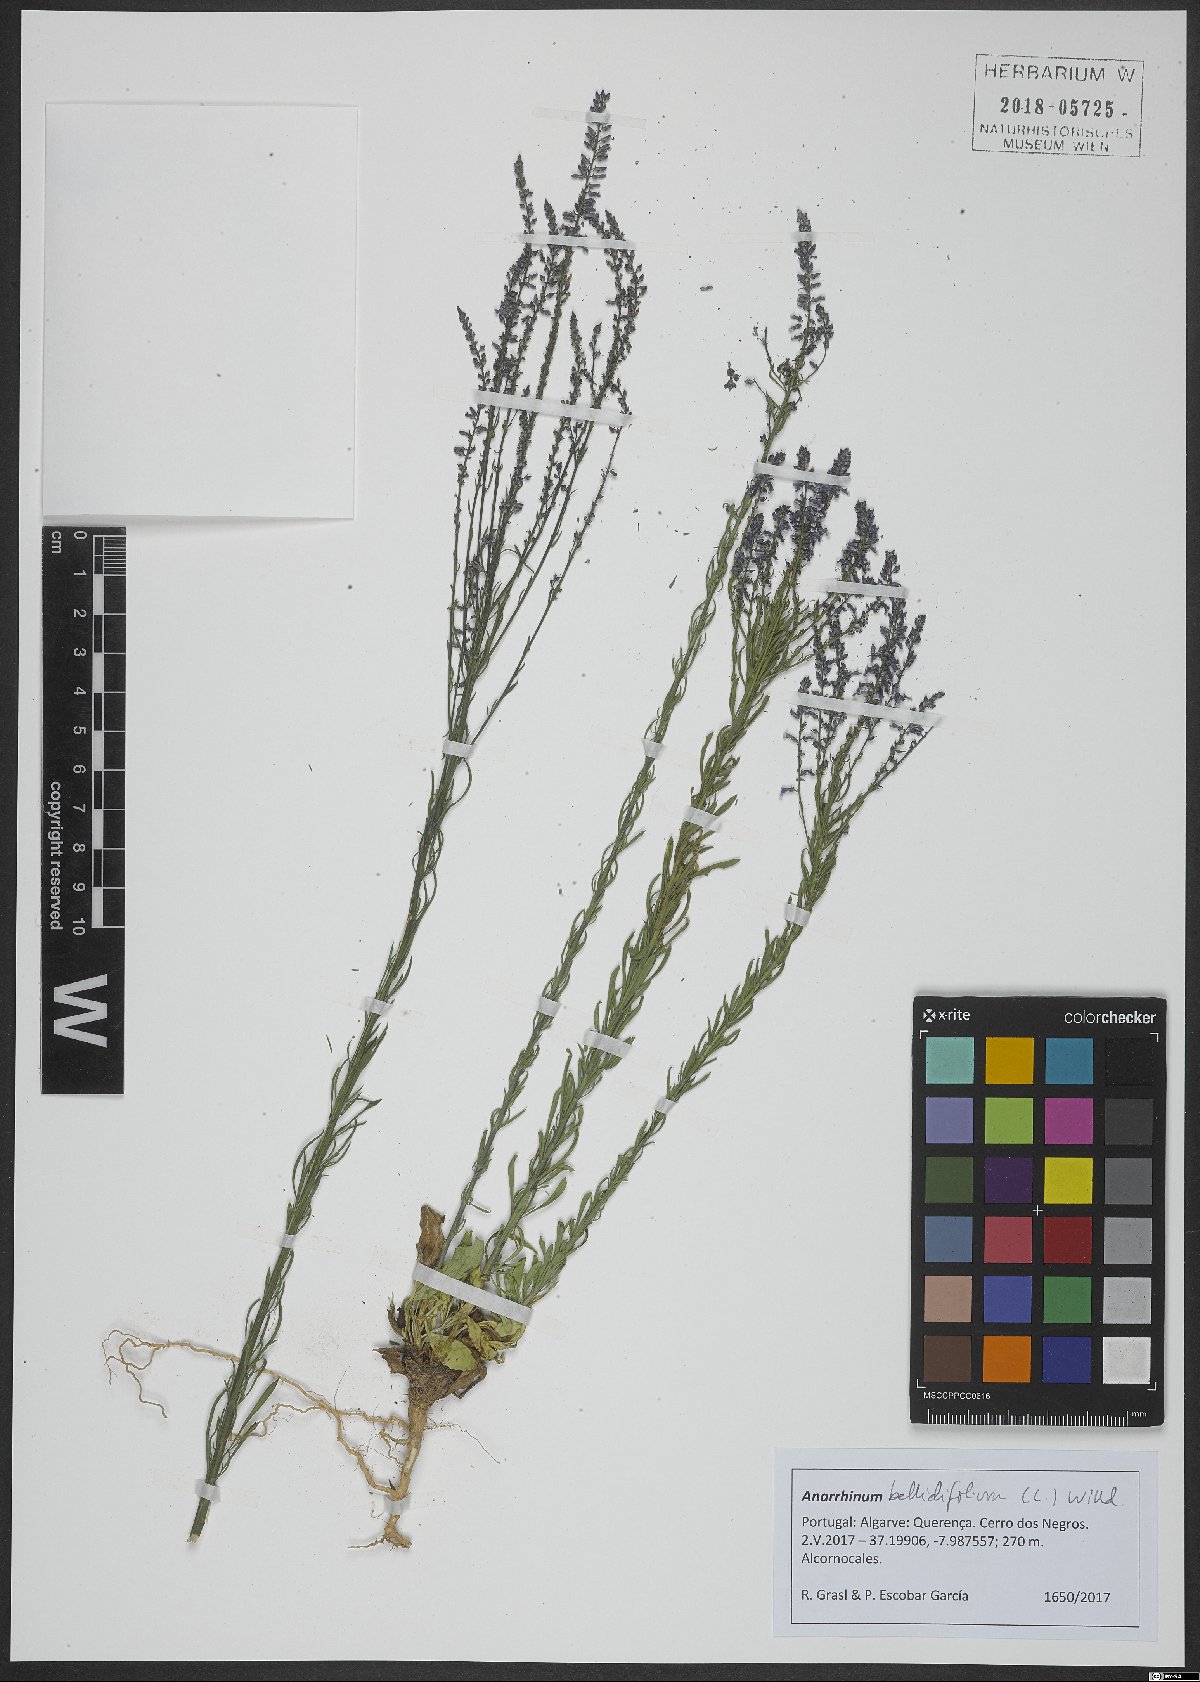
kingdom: Plantae
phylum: Tracheophyta
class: Magnoliopsida
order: Lamiales
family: Plantaginaceae
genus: Anarrhinum
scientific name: Anarrhinum bellidifolium
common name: Daisy-leaved toadflax
